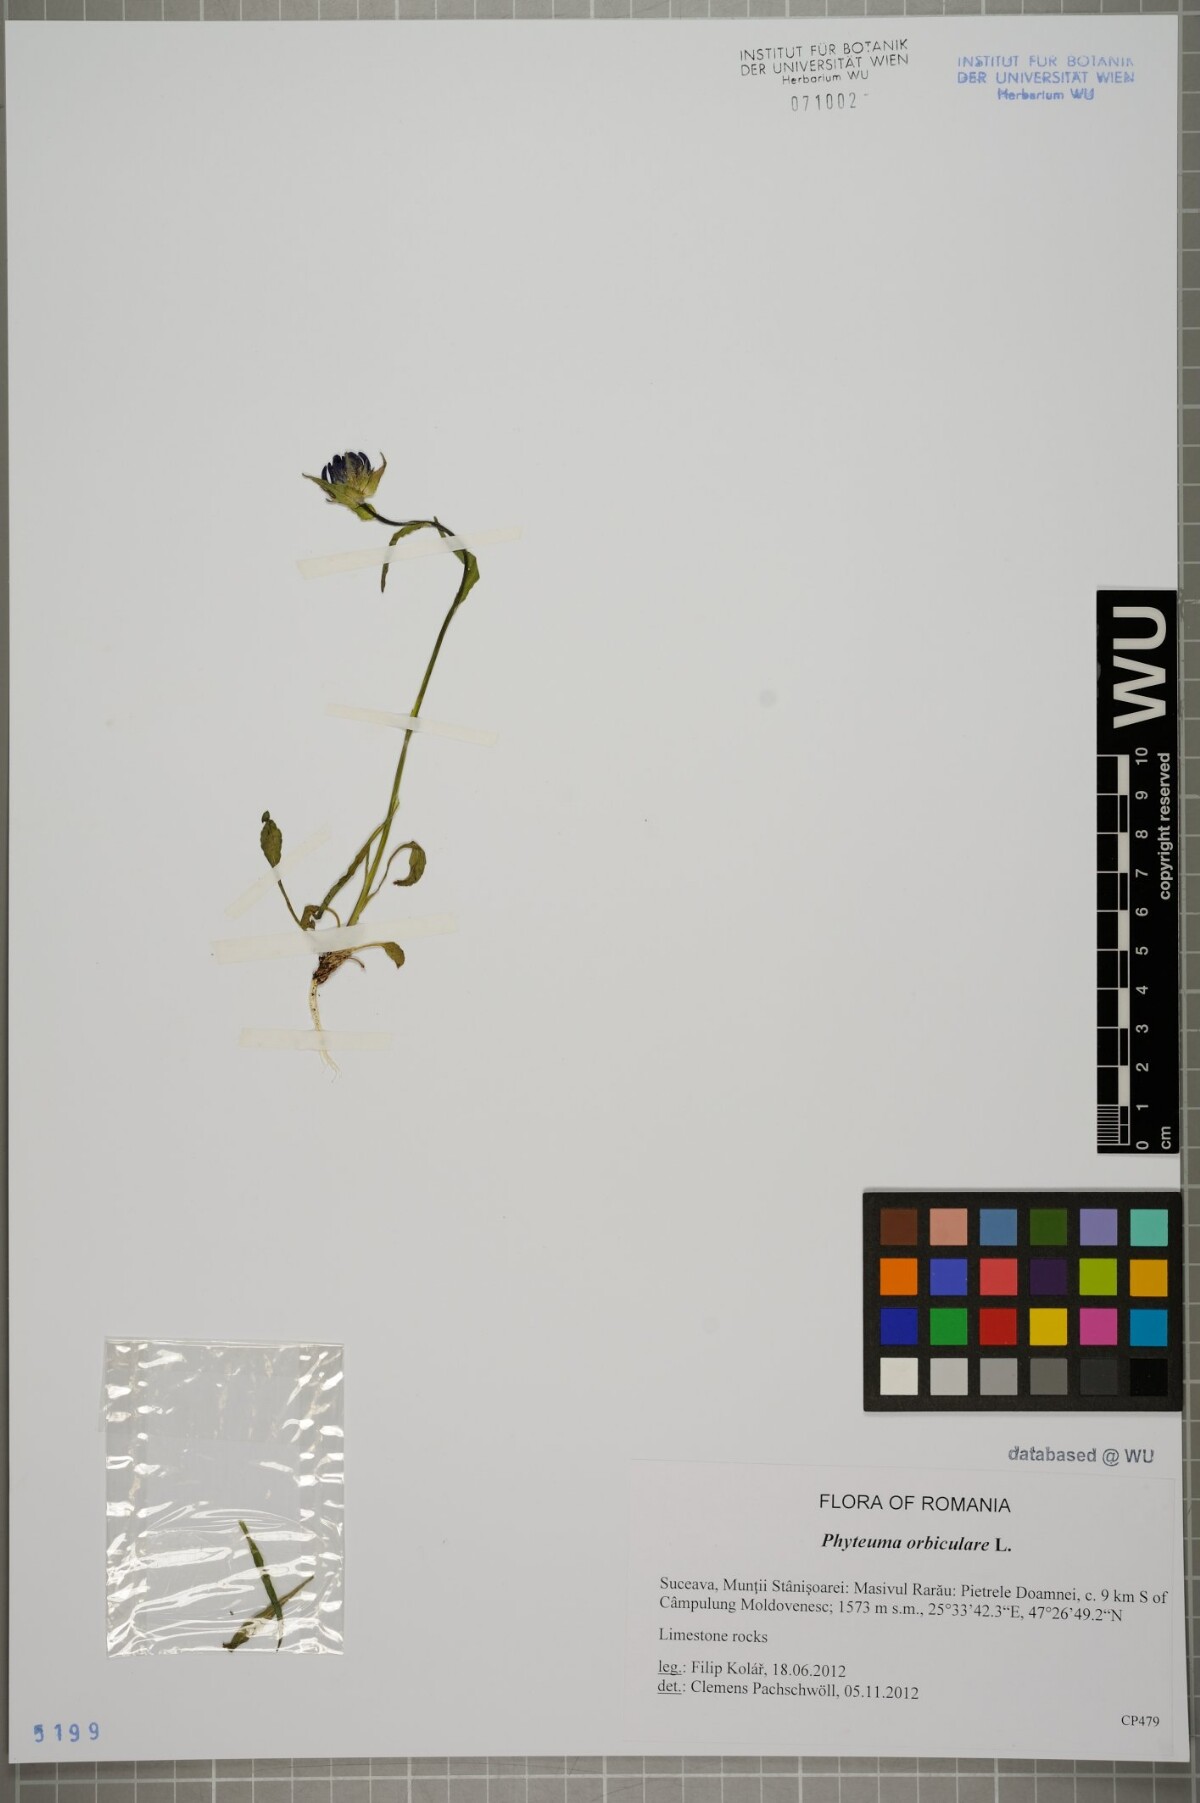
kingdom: Plantae
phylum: Tracheophyta
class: Magnoliopsida
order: Asterales
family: Campanulaceae
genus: Phyteuma
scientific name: Phyteuma orbiculare
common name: Round-headed rampion
